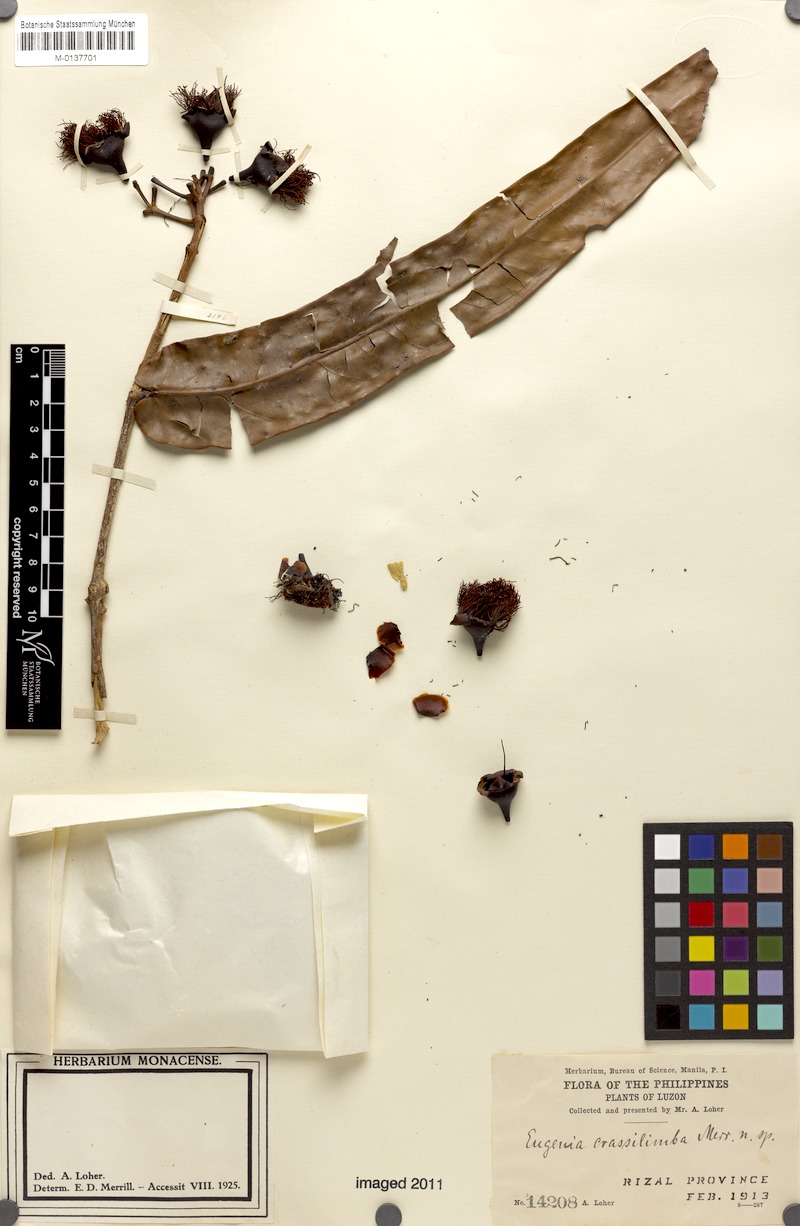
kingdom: Plantae
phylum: Tracheophyta
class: Magnoliopsida
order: Myrtales
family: Myrtaceae
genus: Syzygium
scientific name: Syzygium crassilimbum
